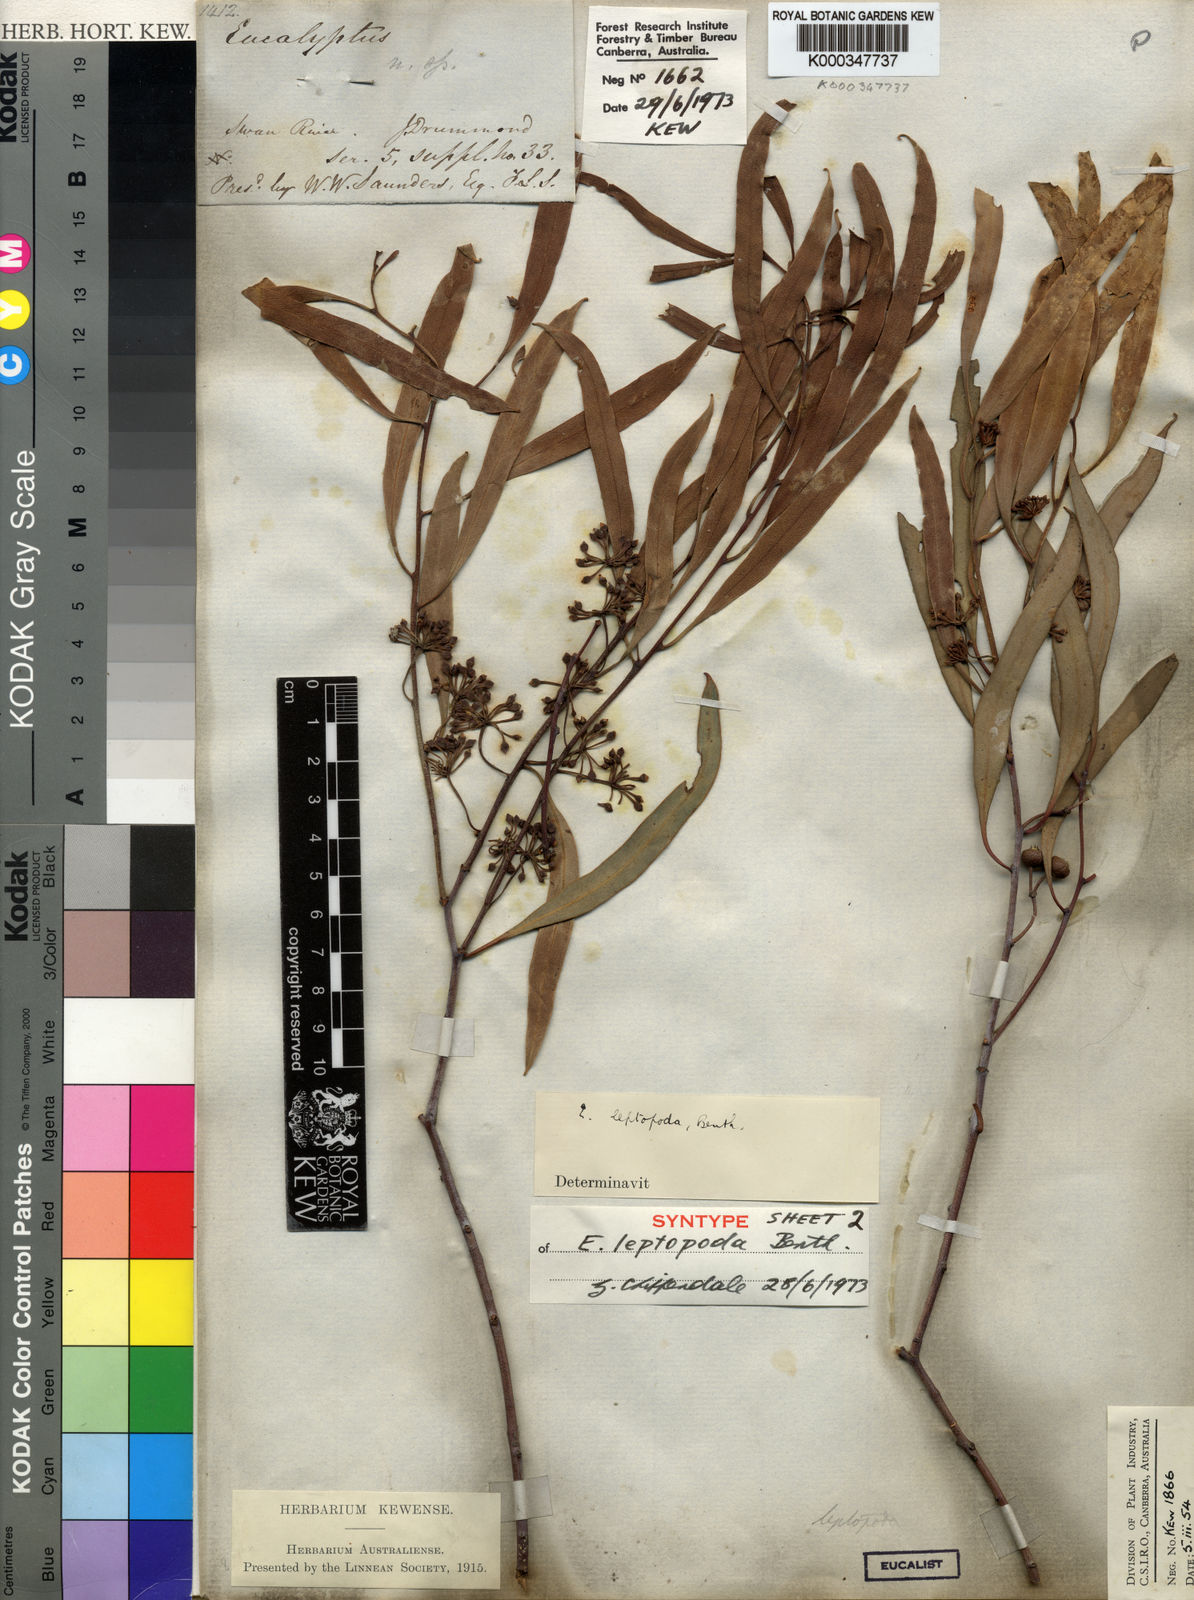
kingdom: Plantae
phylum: Tracheophyta
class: Magnoliopsida
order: Myrtales
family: Myrtaceae
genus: Eucalyptus
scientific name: Eucalyptus leptopoda
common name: Tammin mallee
